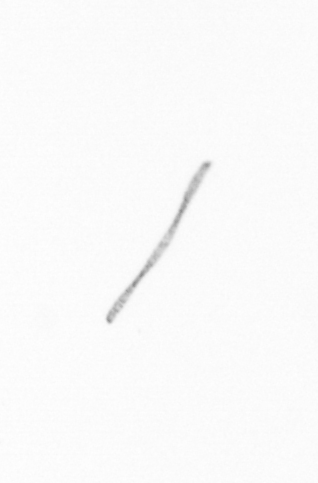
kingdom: Chromista
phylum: Ochrophyta
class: Bacillariophyceae
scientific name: Bacillariophyceae
